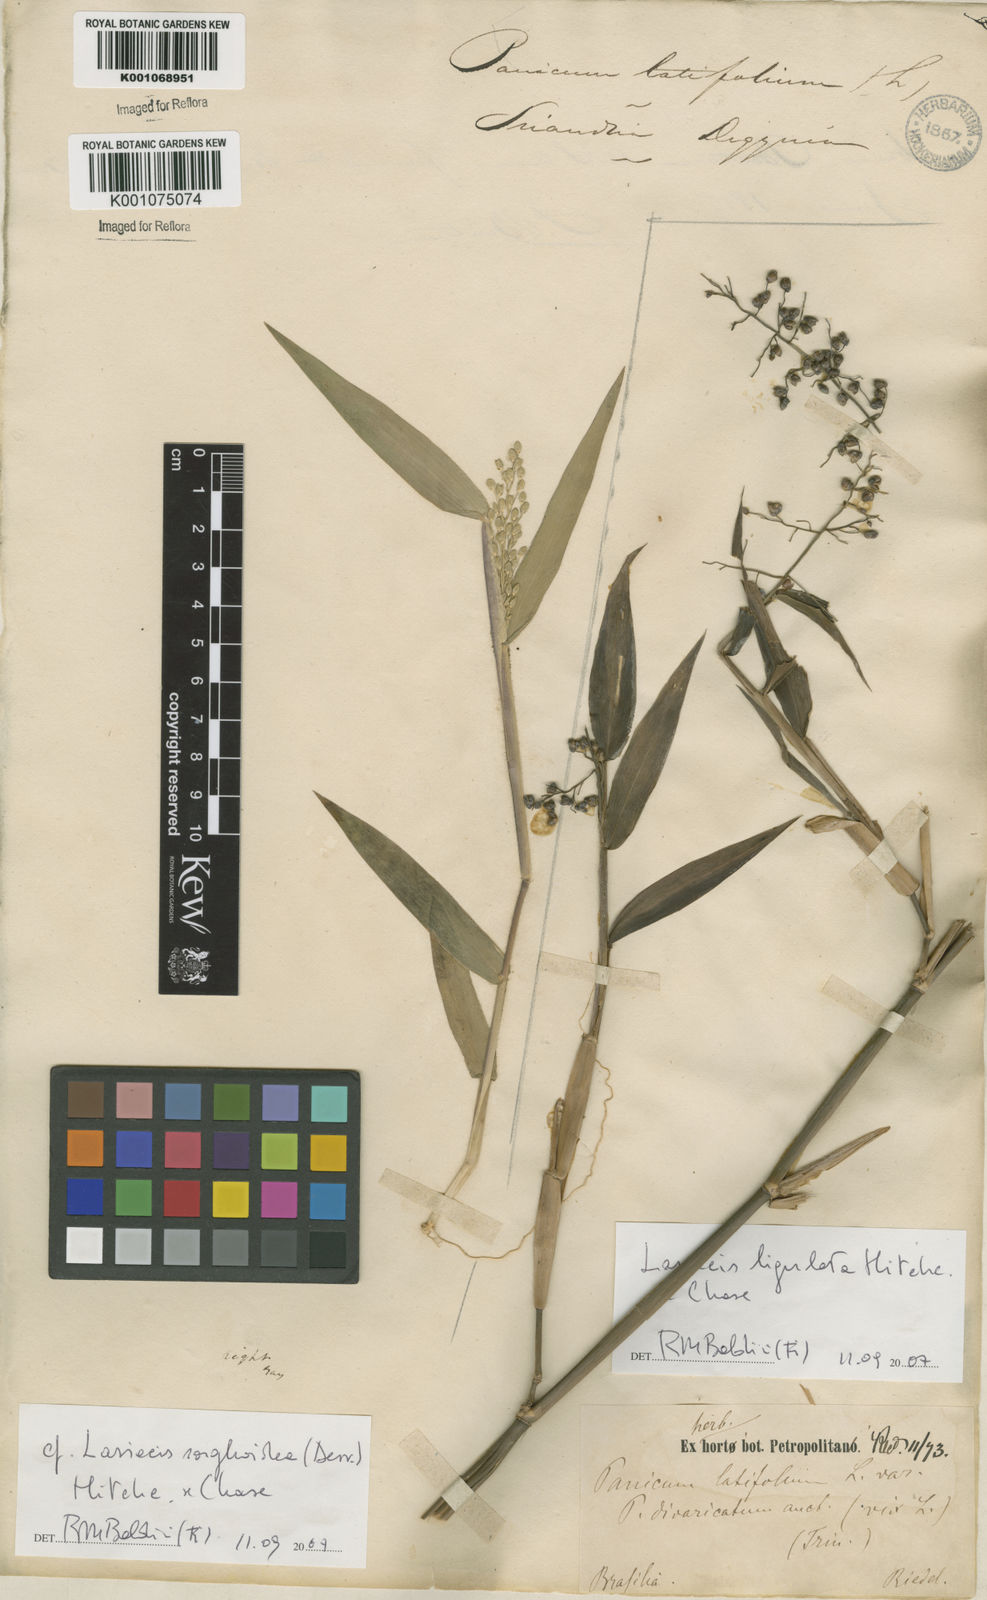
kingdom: Plantae
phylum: Tracheophyta
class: Liliopsida
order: Poales
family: Poaceae
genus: Lasiacis
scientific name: Lasiacis ligulata
